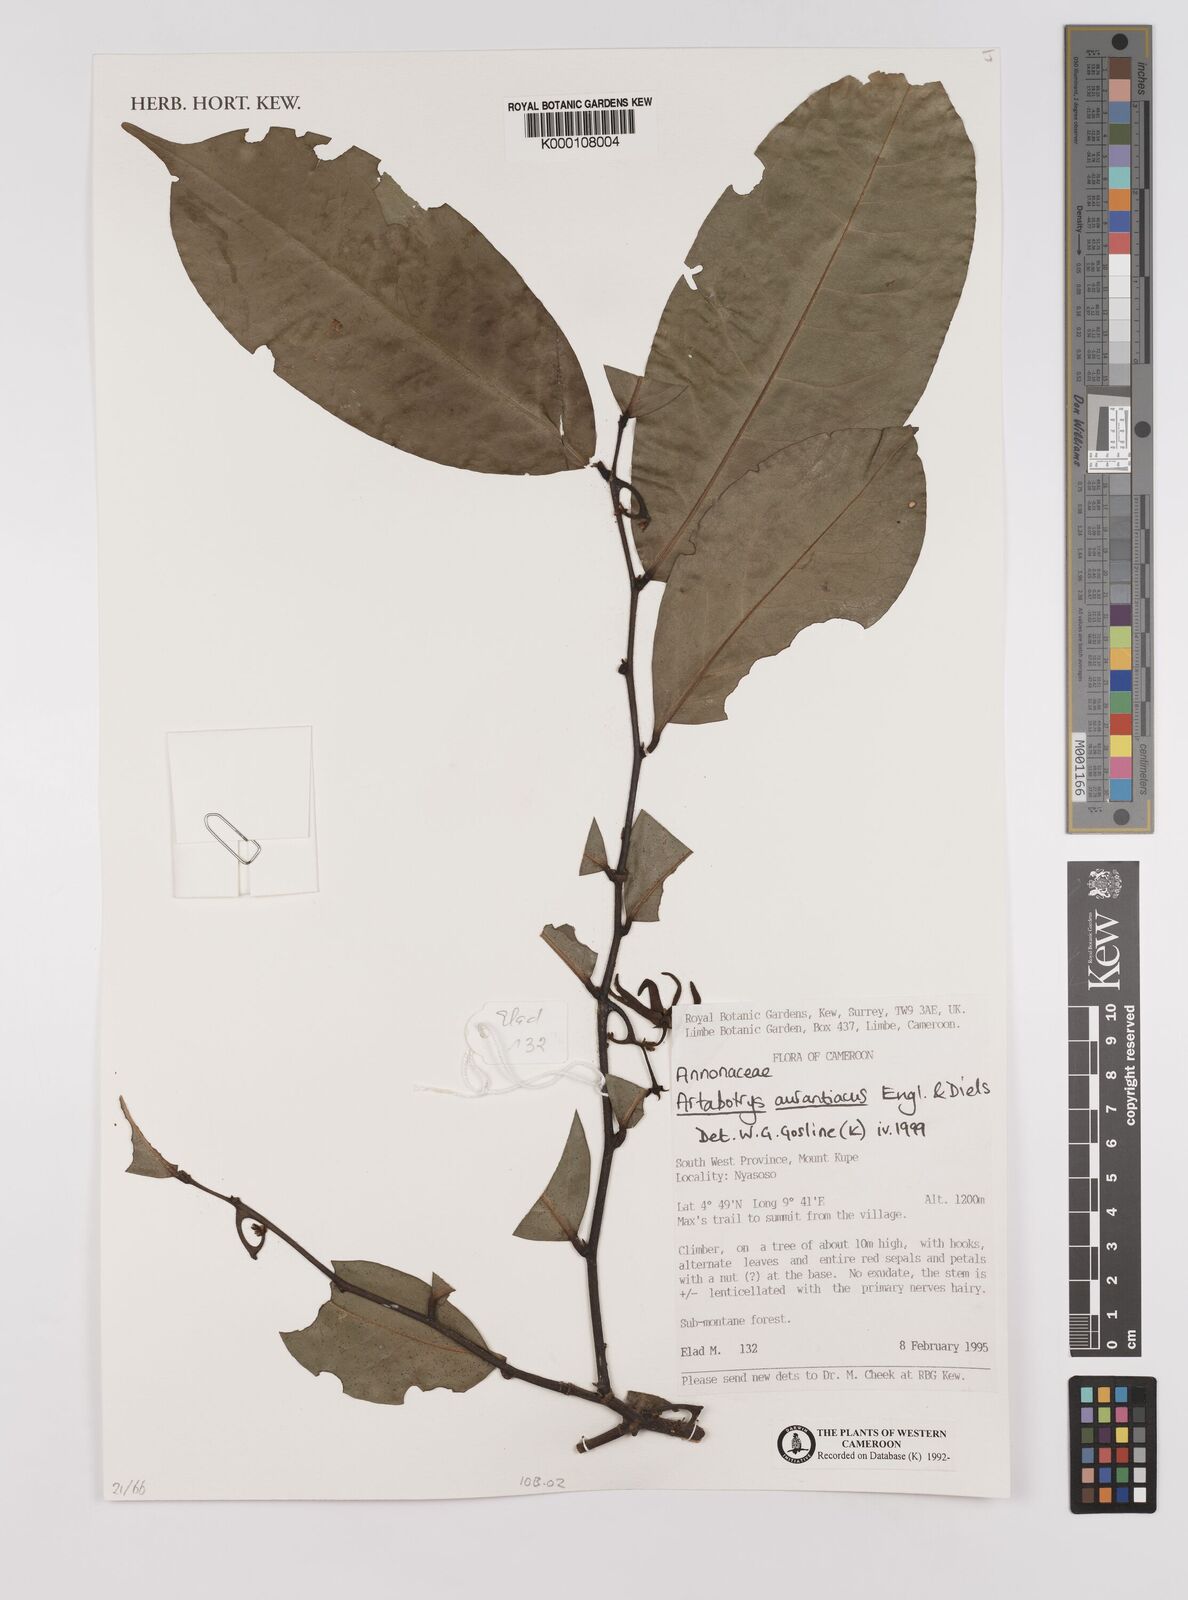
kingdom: Plantae
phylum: Tracheophyta
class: Magnoliopsida
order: Magnoliales
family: Annonaceae
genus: Artabotrys
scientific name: Artabotrys aurantiacus
